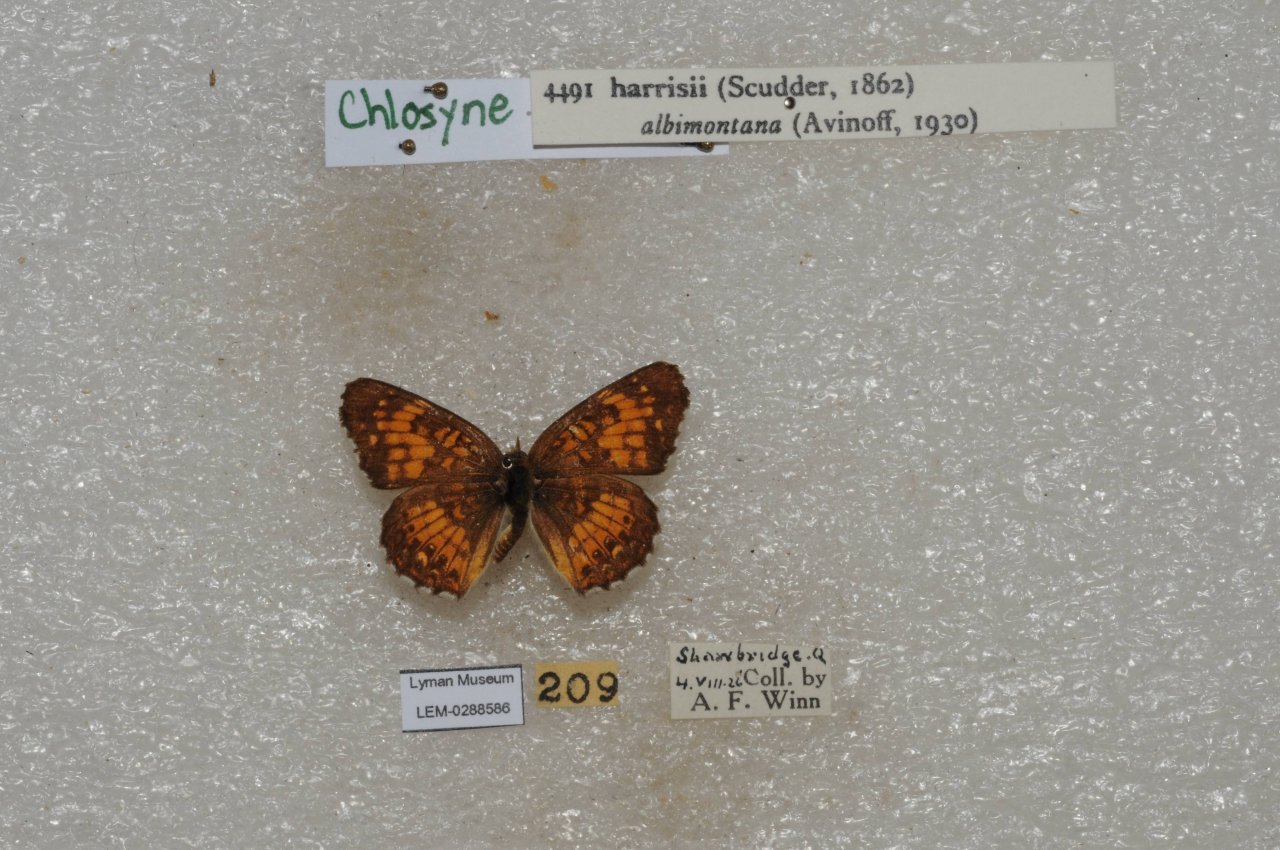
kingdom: Animalia
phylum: Arthropoda
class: Insecta
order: Lepidoptera
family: Nymphalidae
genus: Chlosyne
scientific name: Chlosyne harrisii
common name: Harris's Checkerspot
